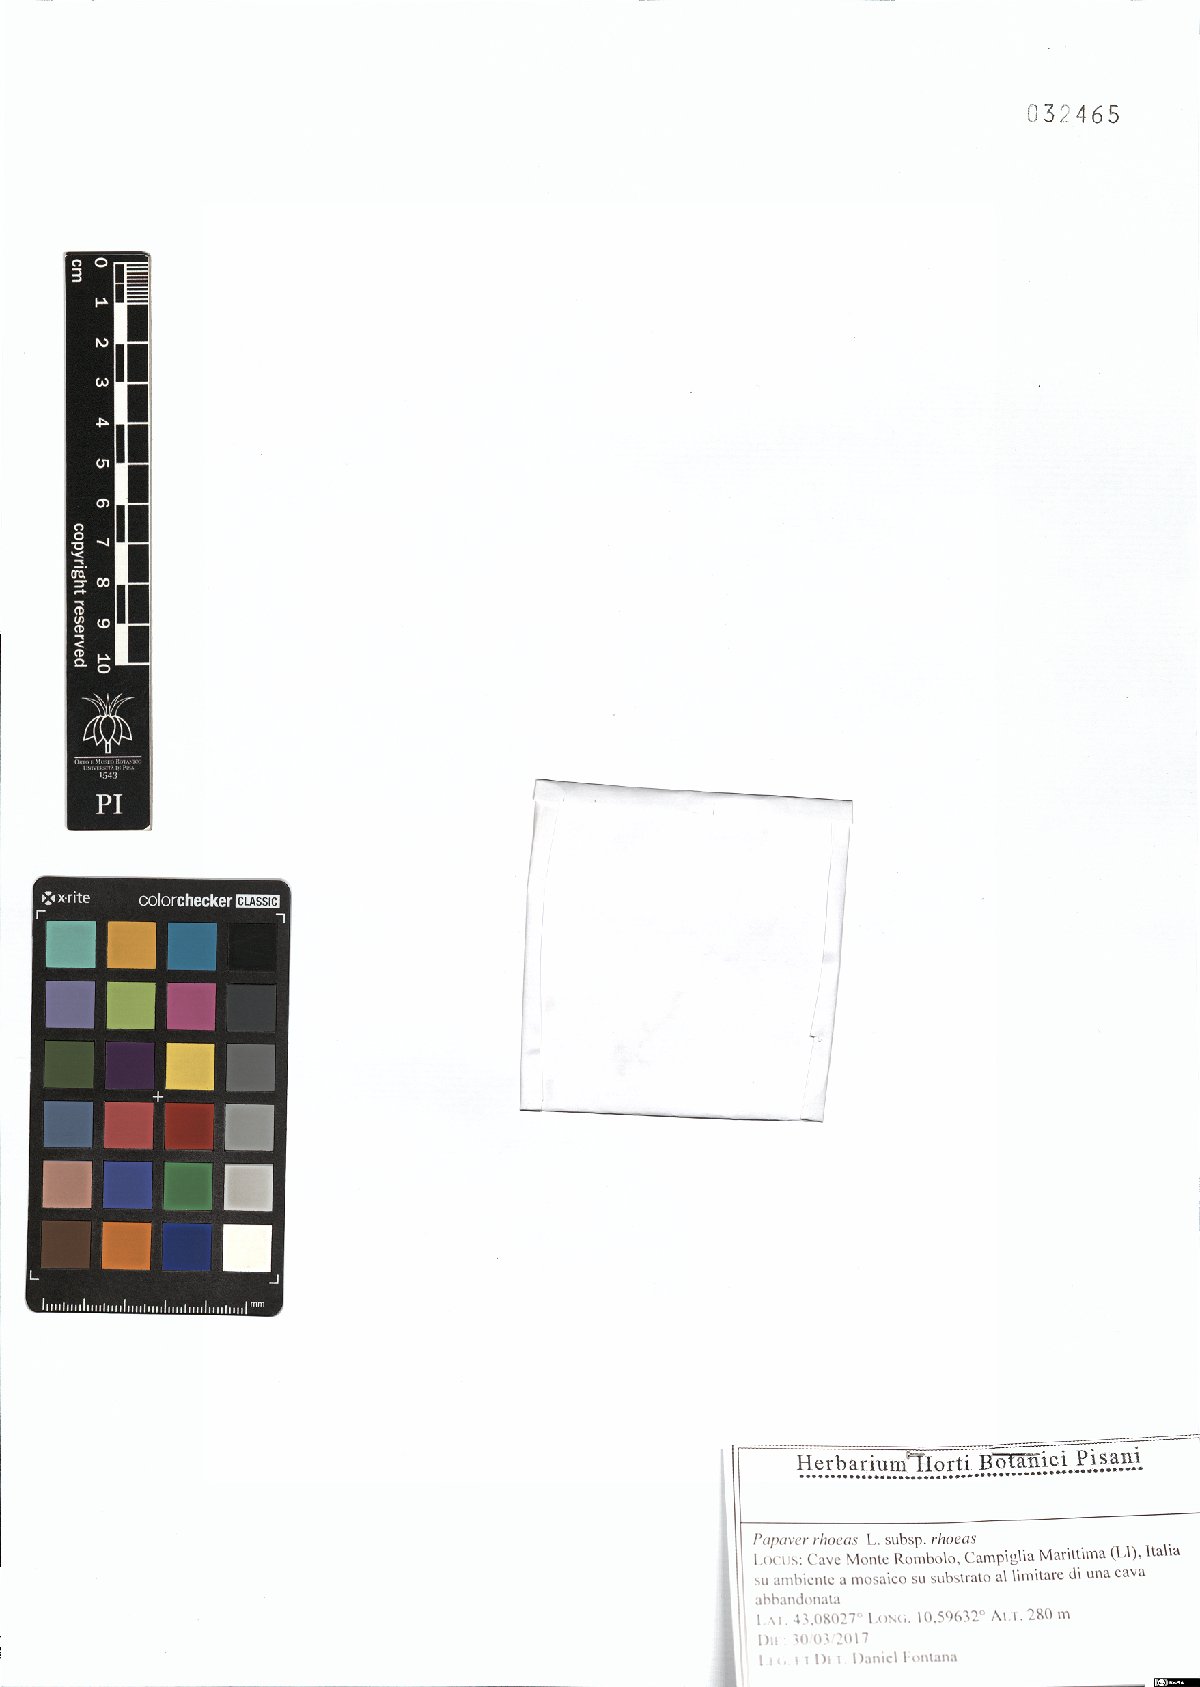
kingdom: Plantae
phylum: Tracheophyta
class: Magnoliopsida
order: Ranunculales
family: Papaveraceae
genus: Papaver
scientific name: Papaver rhoeas
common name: Corn poppy
